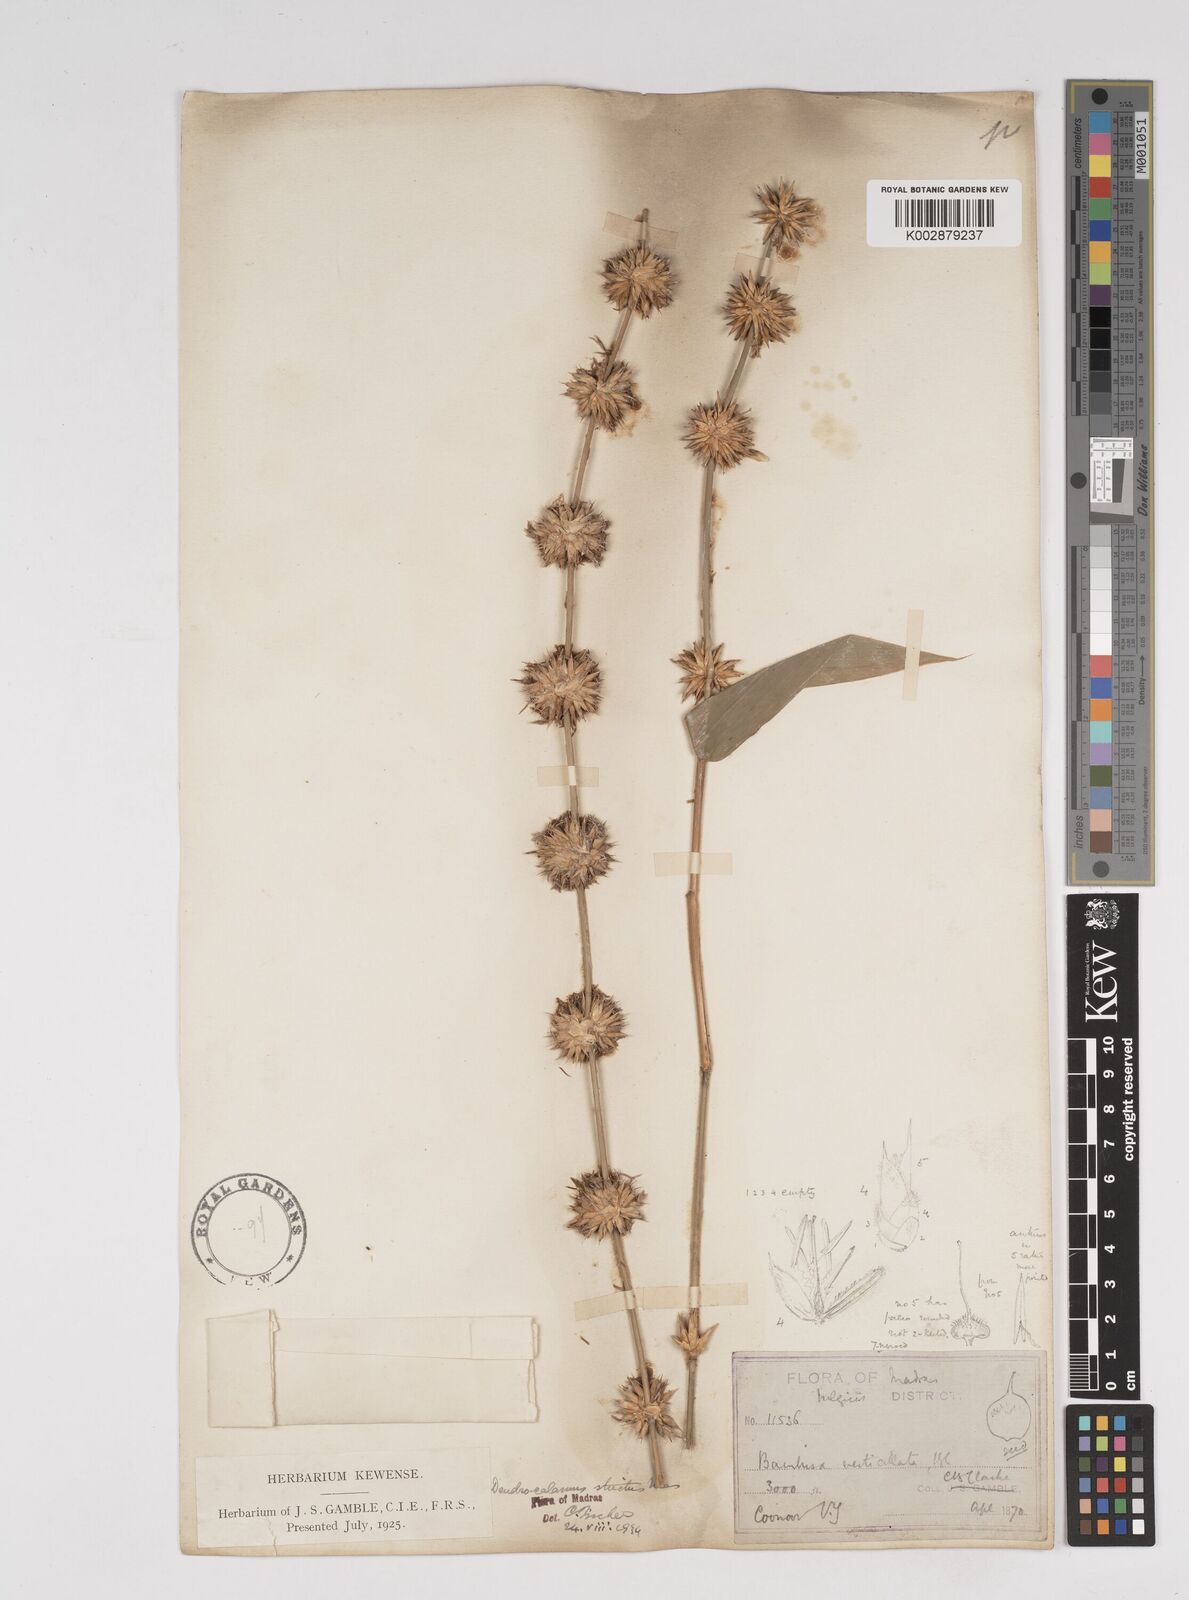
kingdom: Plantae
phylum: Tracheophyta
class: Liliopsida
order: Poales
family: Poaceae
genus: Dendrocalamus
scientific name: Dendrocalamus strictus
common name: Male bamboo
